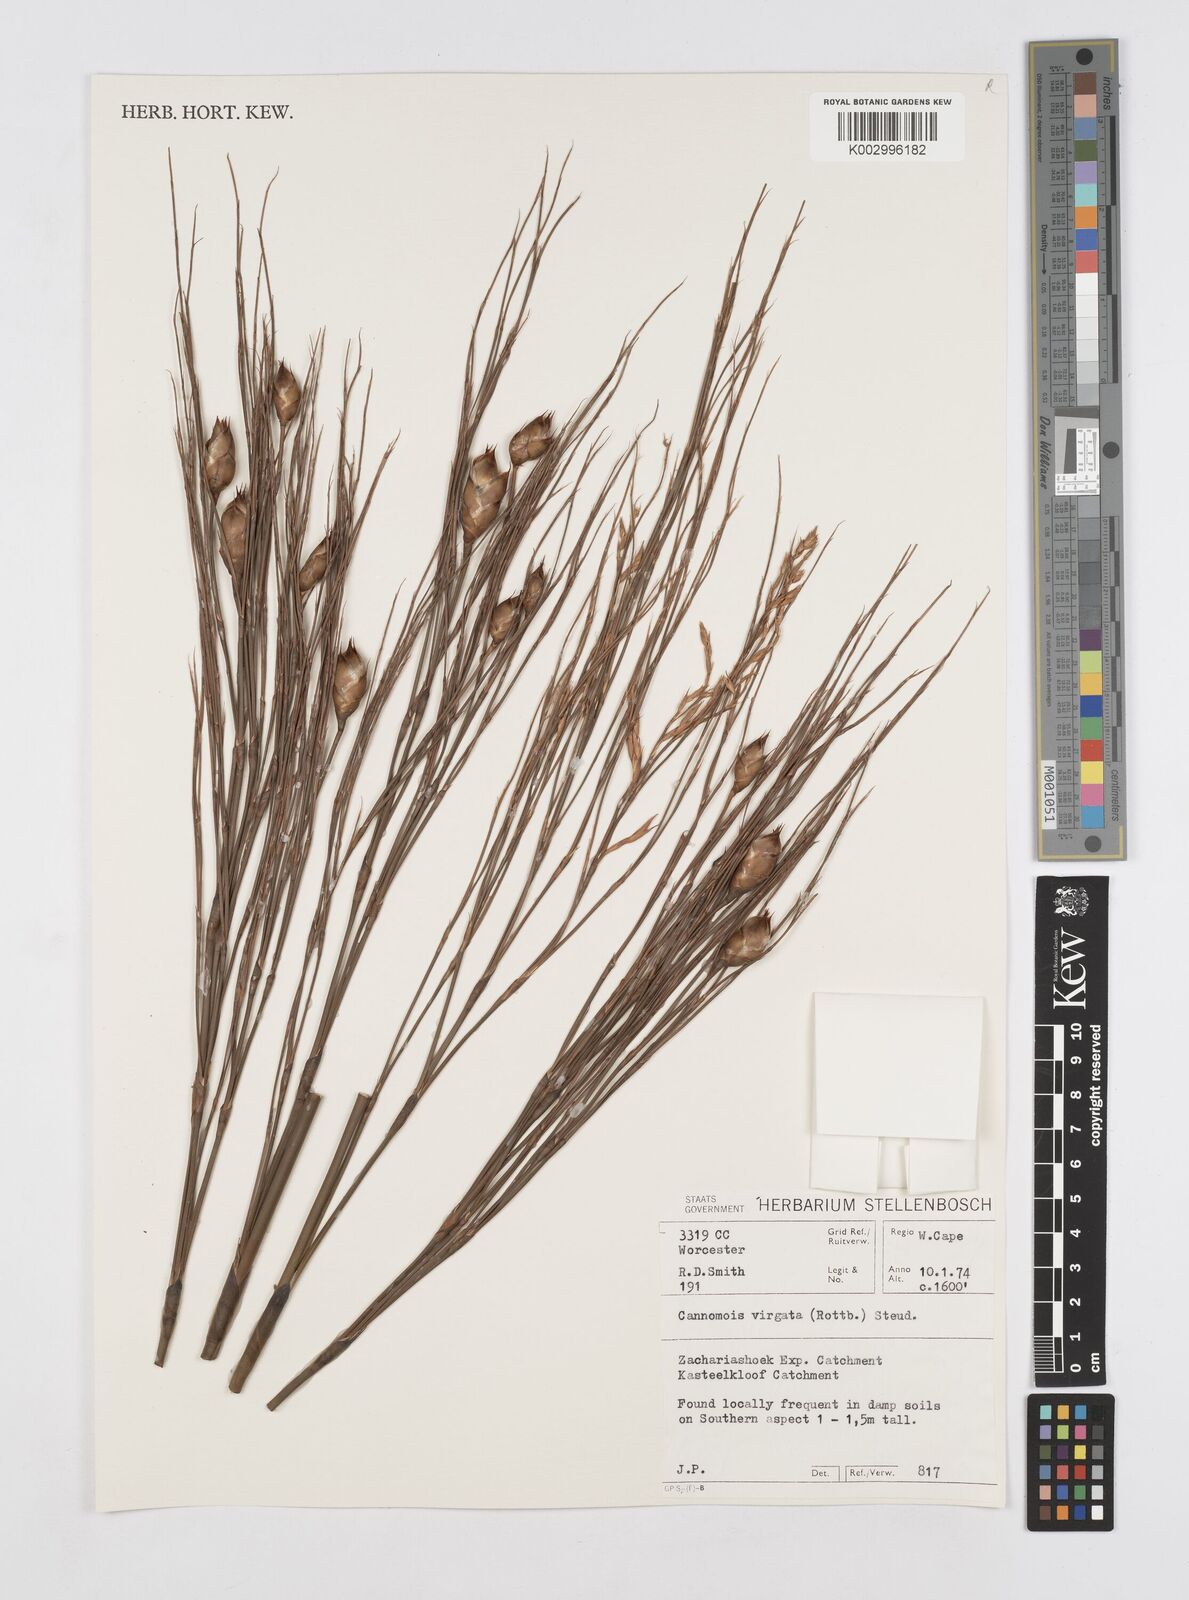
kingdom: Plantae
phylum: Tracheophyta
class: Liliopsida
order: Poales
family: Restionaceae
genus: Cannomois
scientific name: Cannomois virgata
